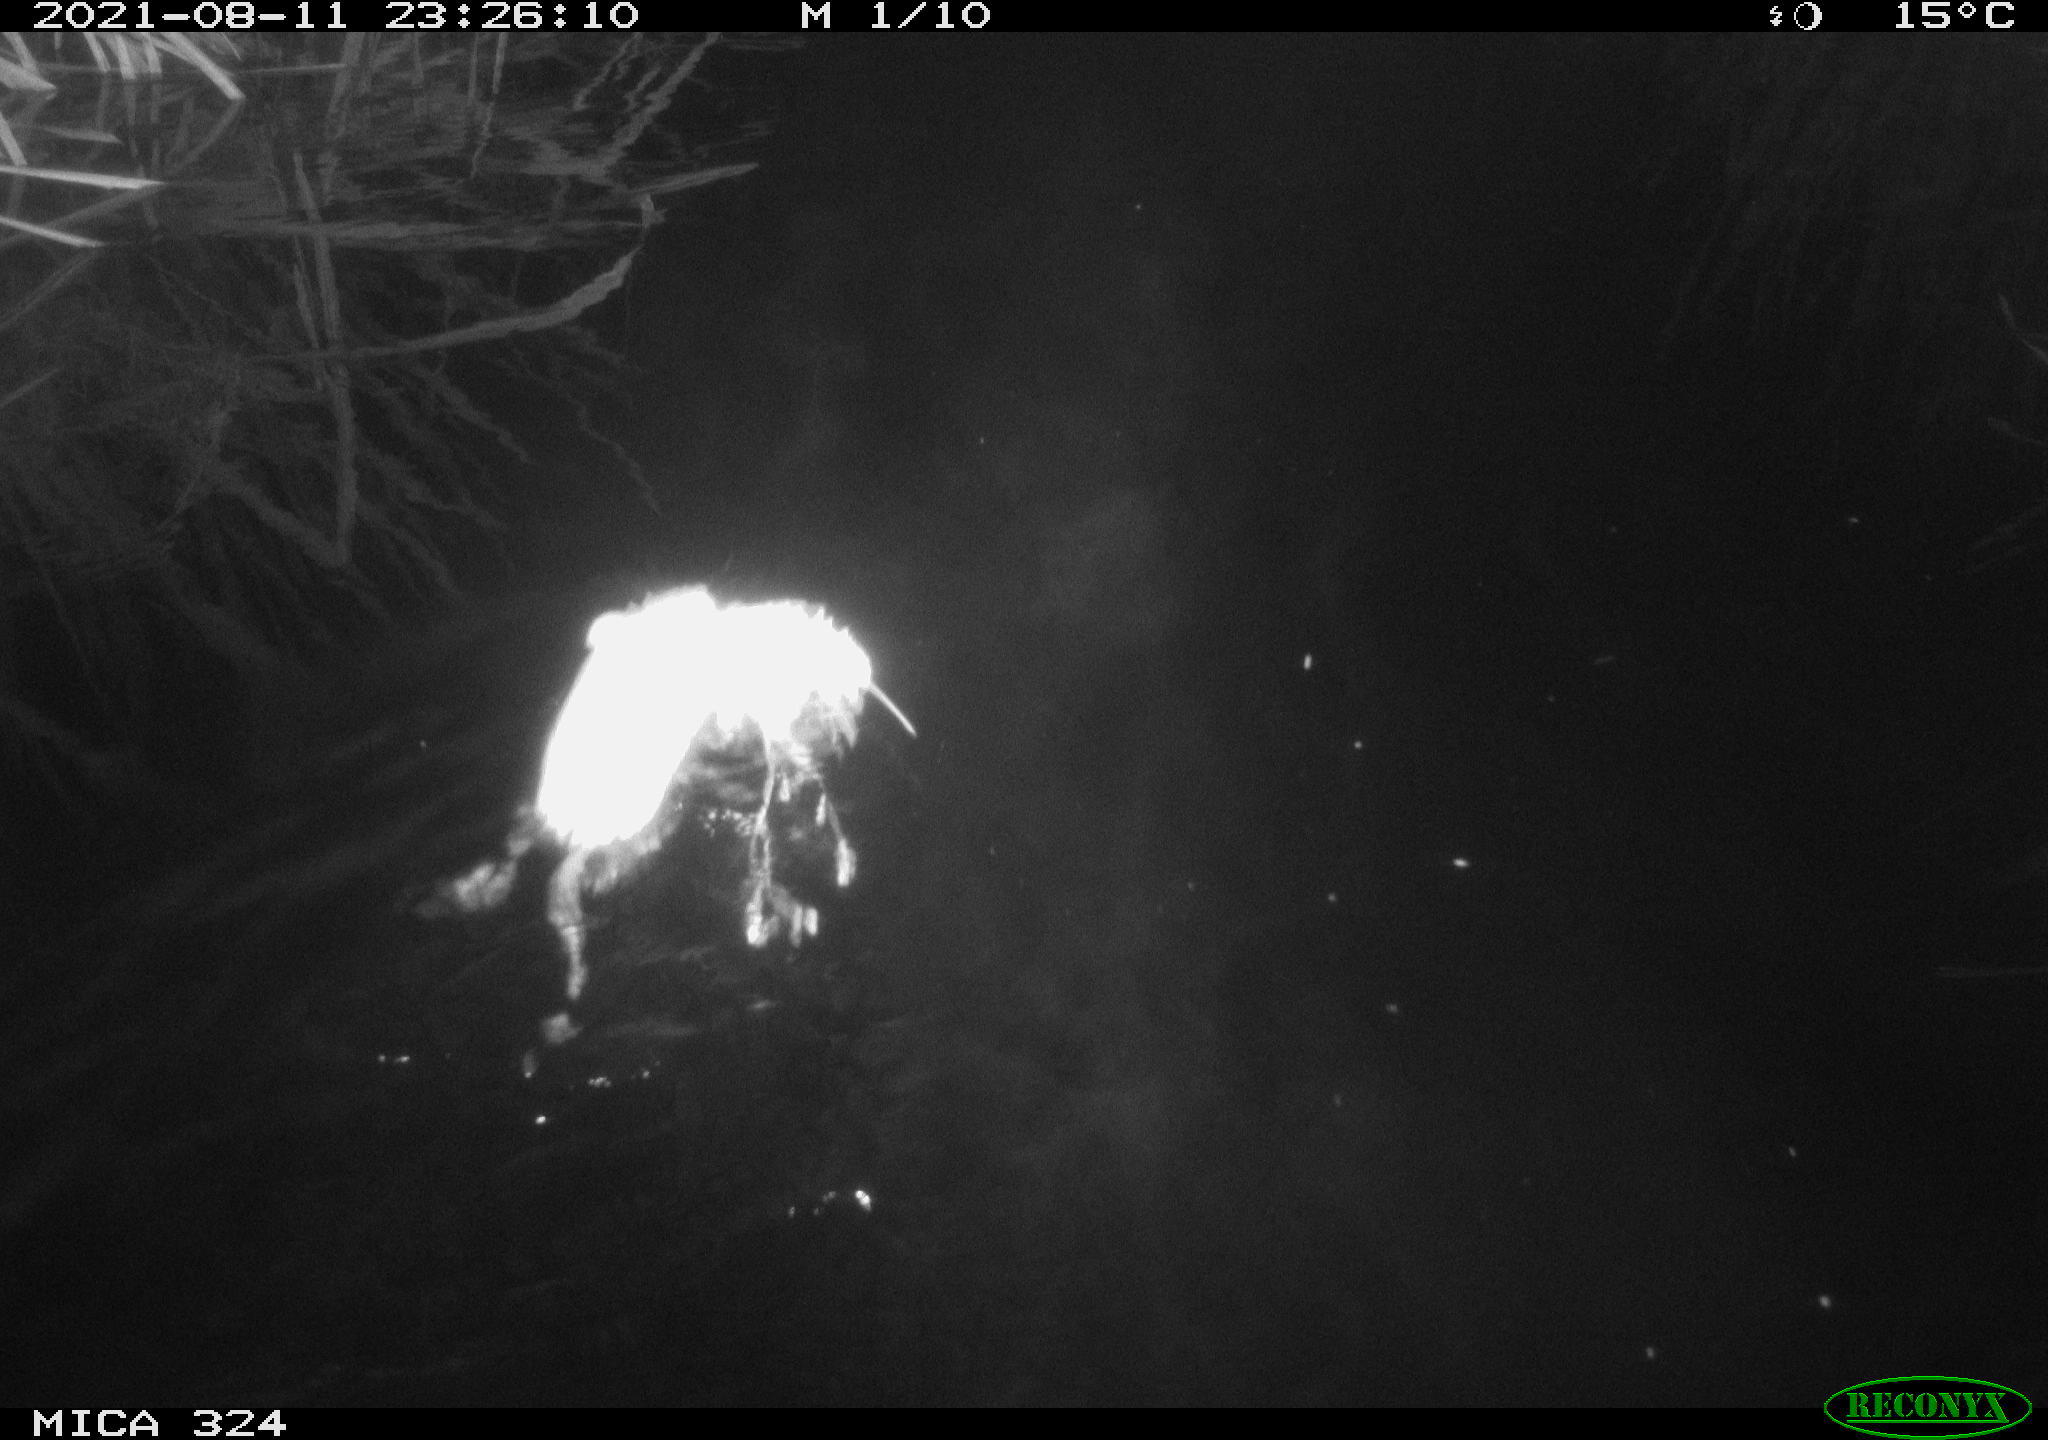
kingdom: Animalia
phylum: Chordata
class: Mammalia
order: Rodentia
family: Cricetidae
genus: Ondatra
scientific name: Ondatra zibethicus
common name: Muskrat
